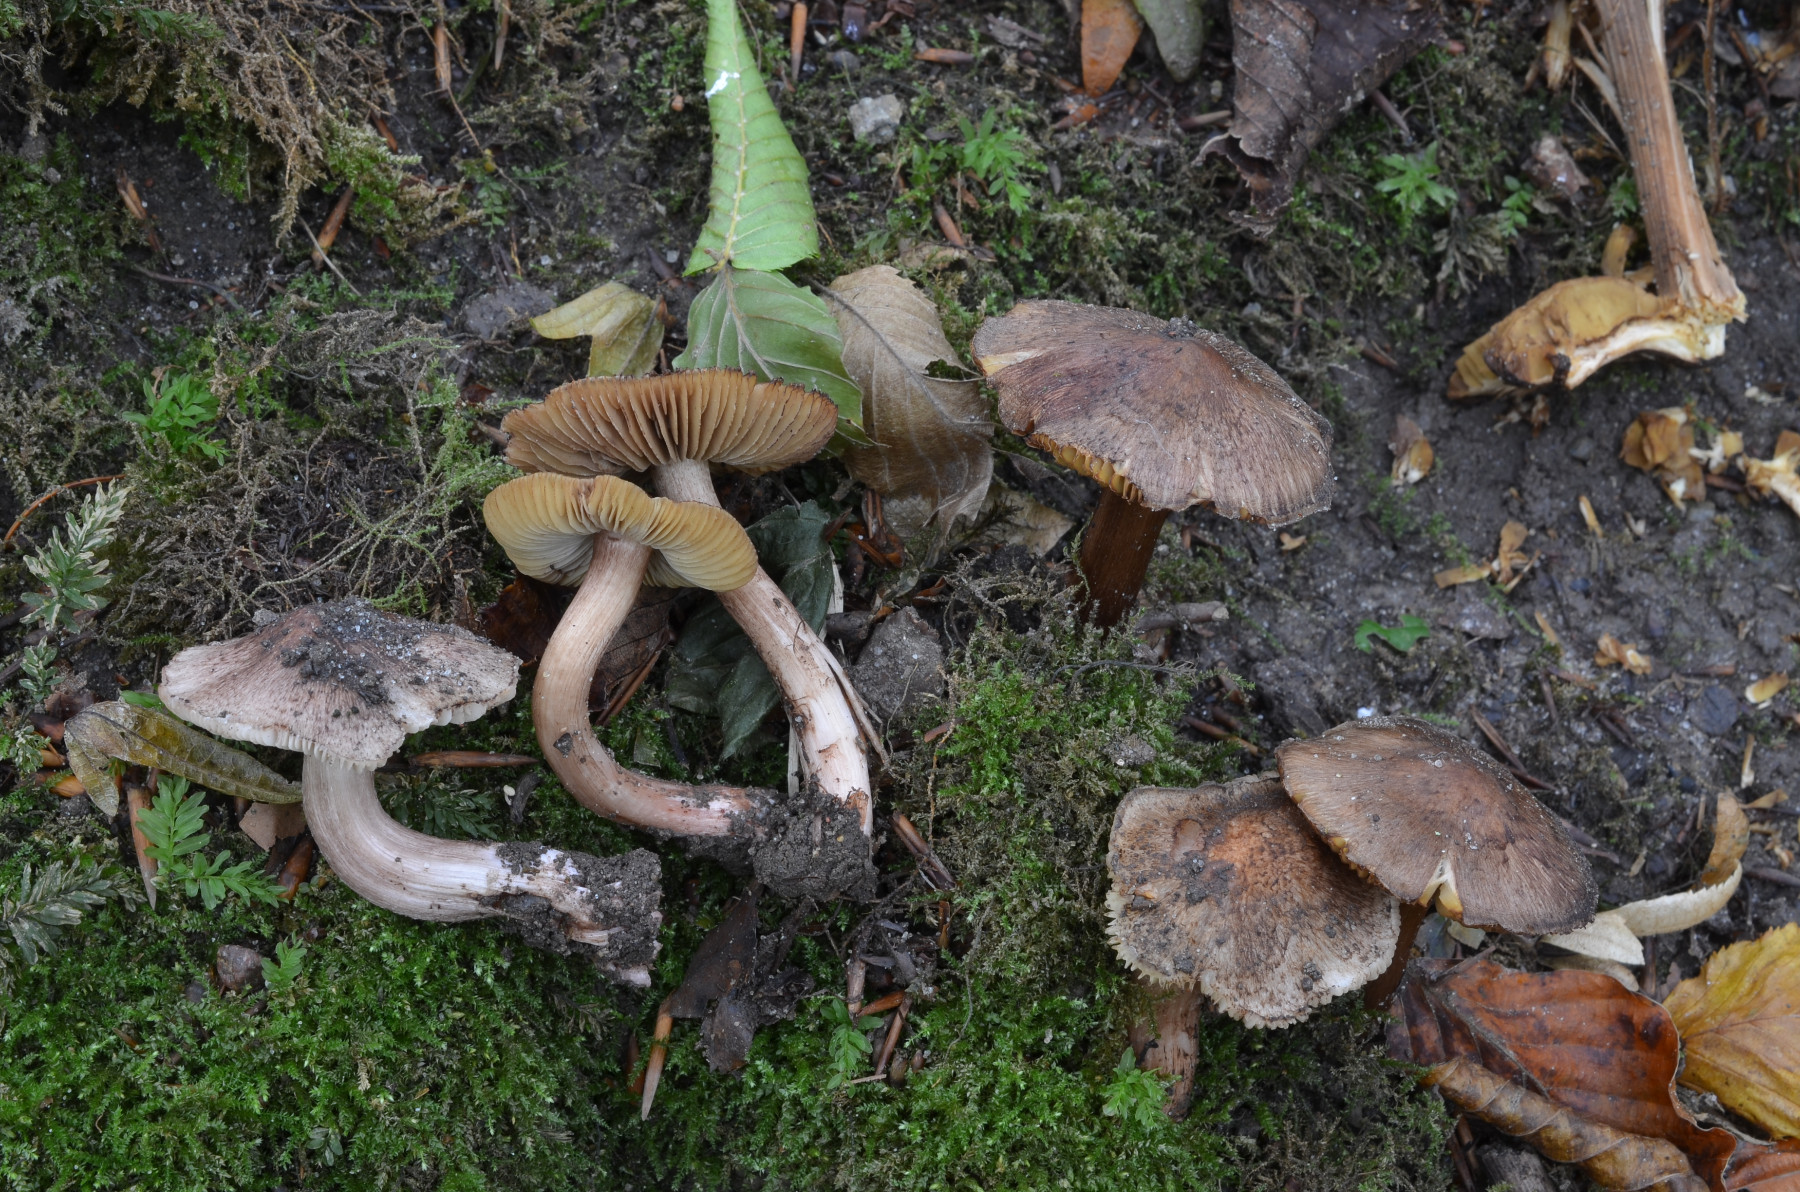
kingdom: Fungi
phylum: Basidiomycota
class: Agaricomycetes
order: Agaricales
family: Inocybaceae
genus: Inosperma
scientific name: Inosperma adaequatum
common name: vinrød trævlhat
